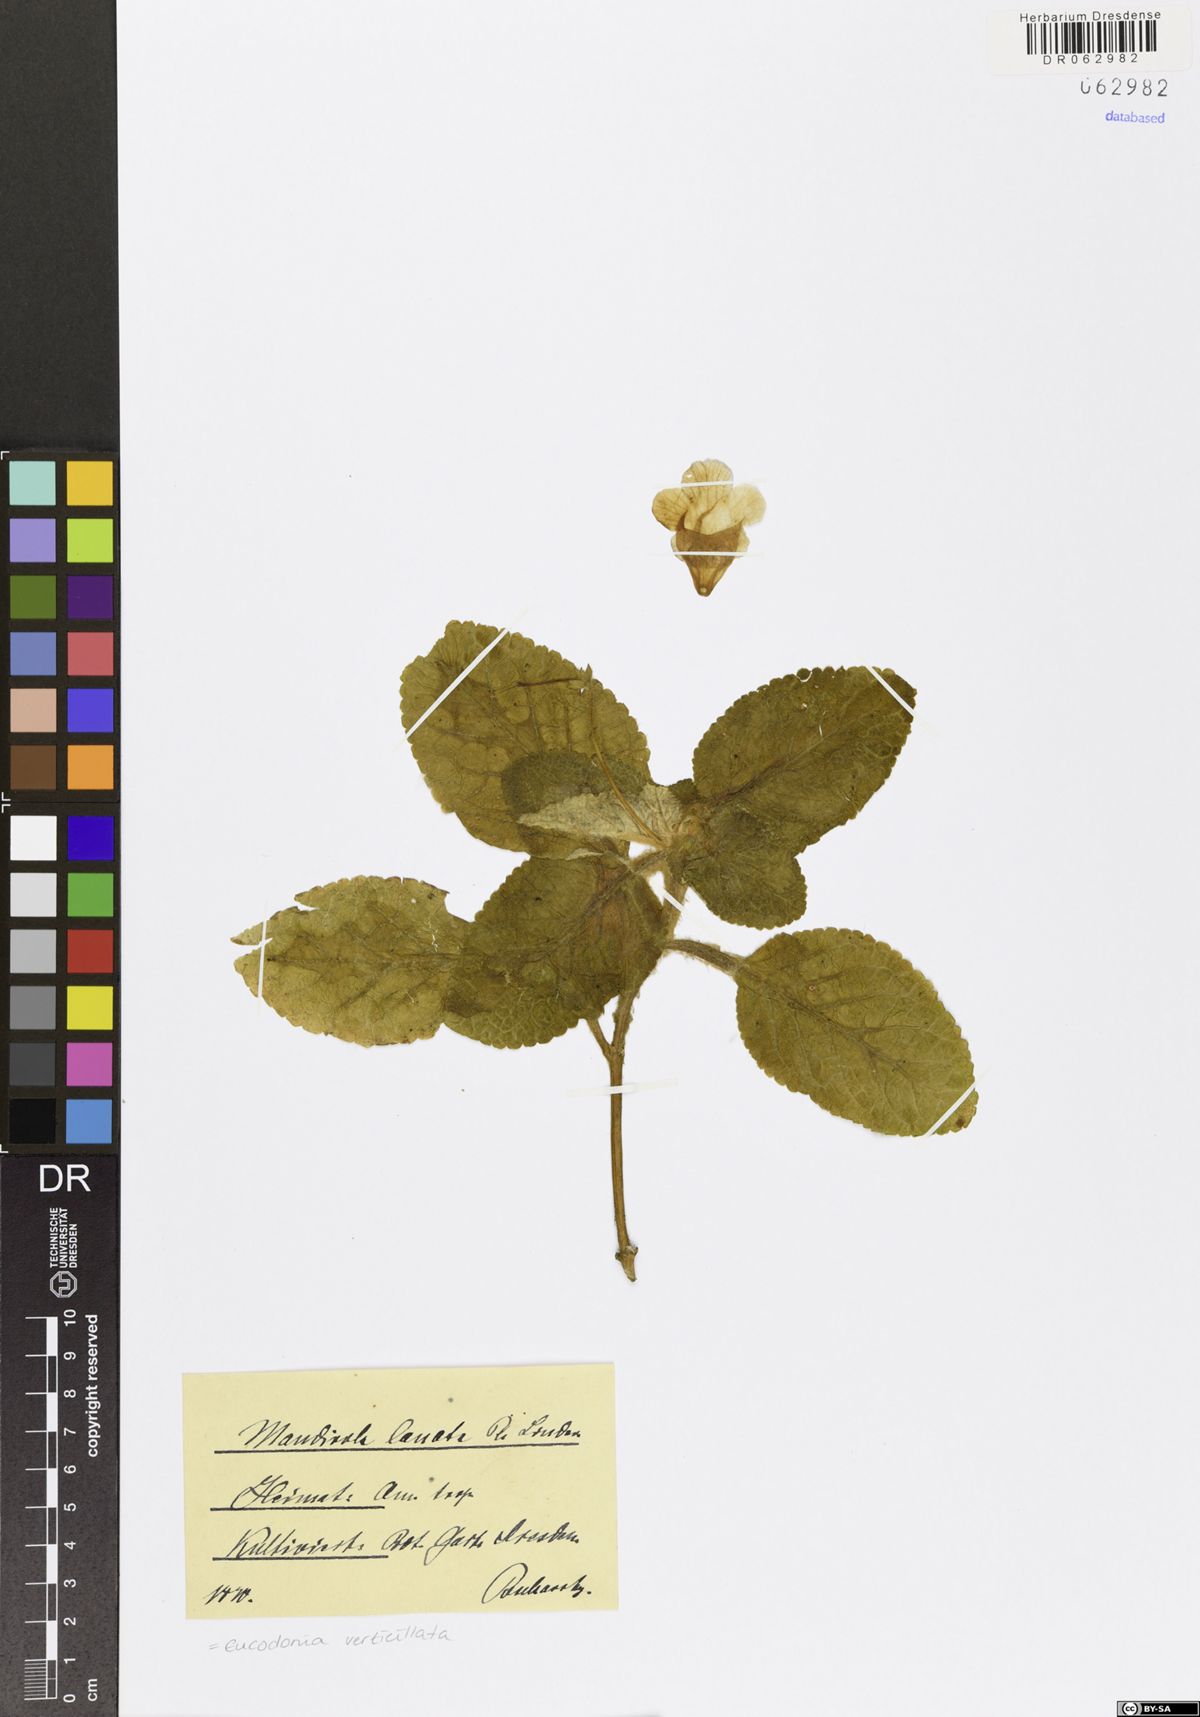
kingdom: Plantae
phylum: Tracheophyta
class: Magnoliopsida
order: Lamiales
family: Gesneriaceae
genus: Eucodonia
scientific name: Eucodonia verticillata
